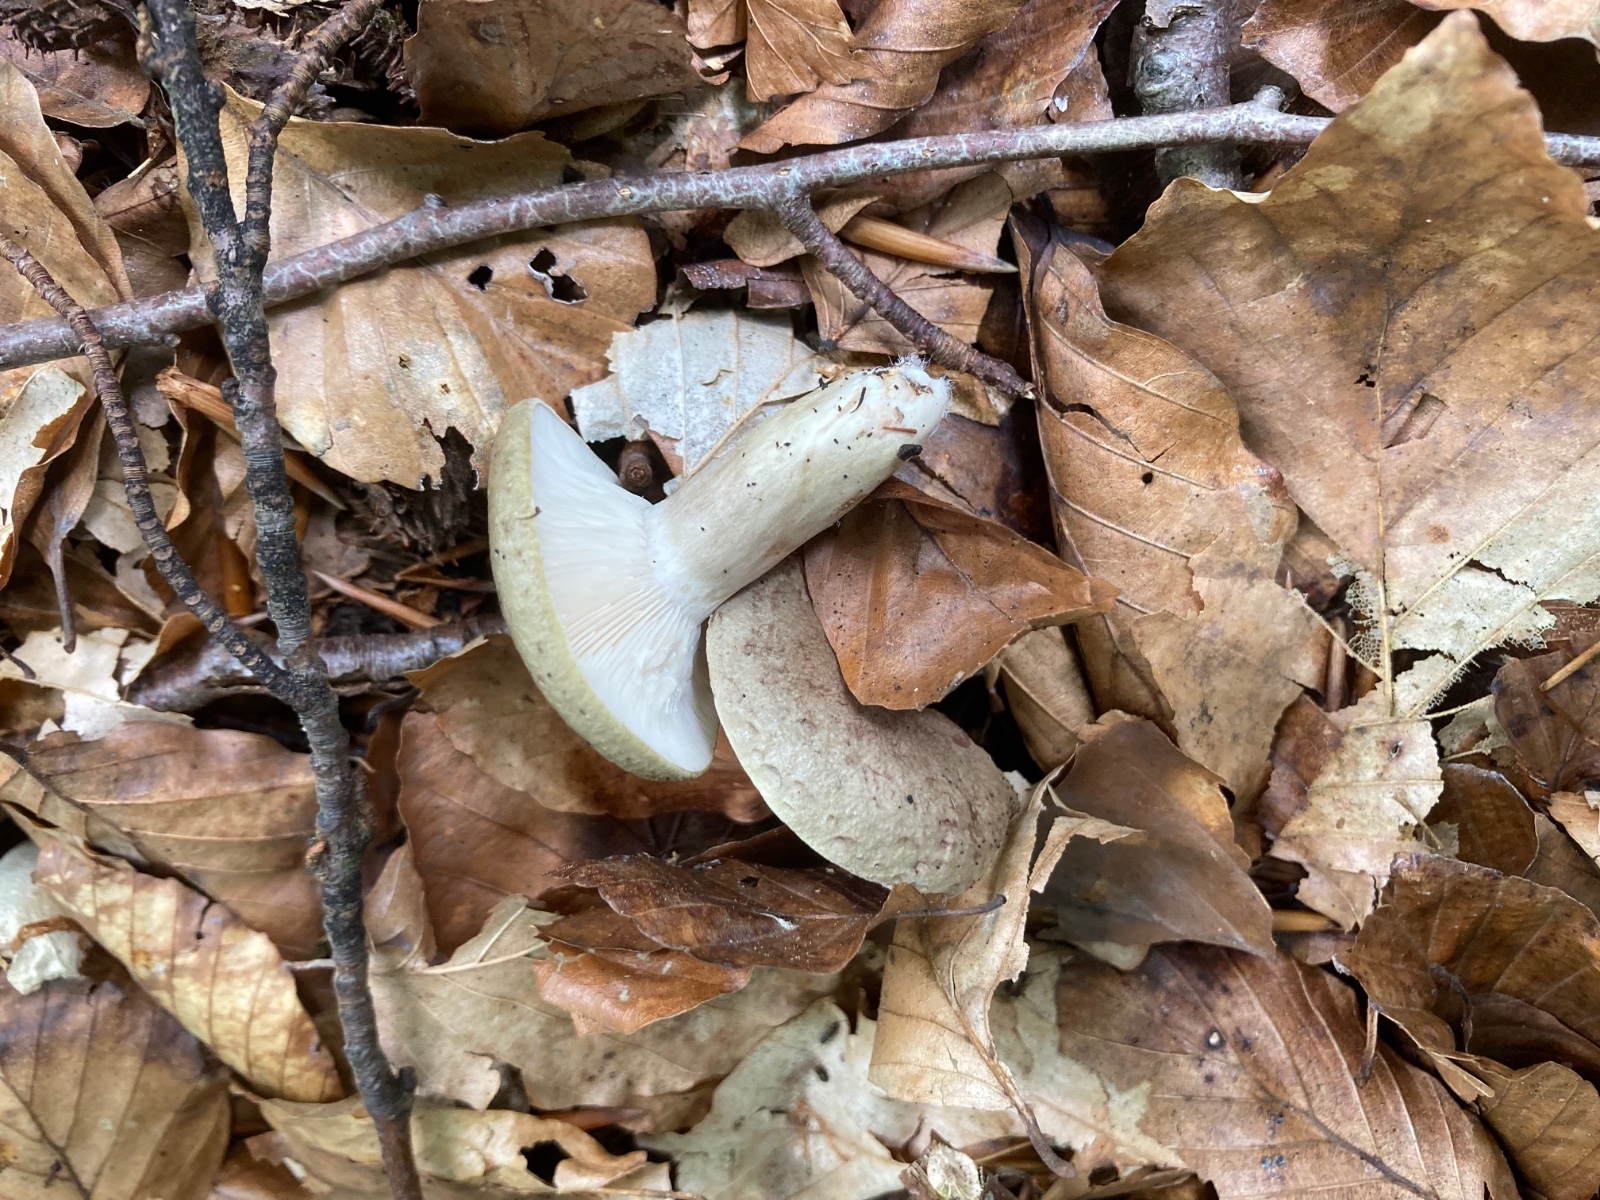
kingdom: Fungi
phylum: Basidiomycota
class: Agaricomycetes
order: Russulales
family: Russulaceae
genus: Lactarius
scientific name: Lactarius blennius
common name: dråbeplettet mælkehat
